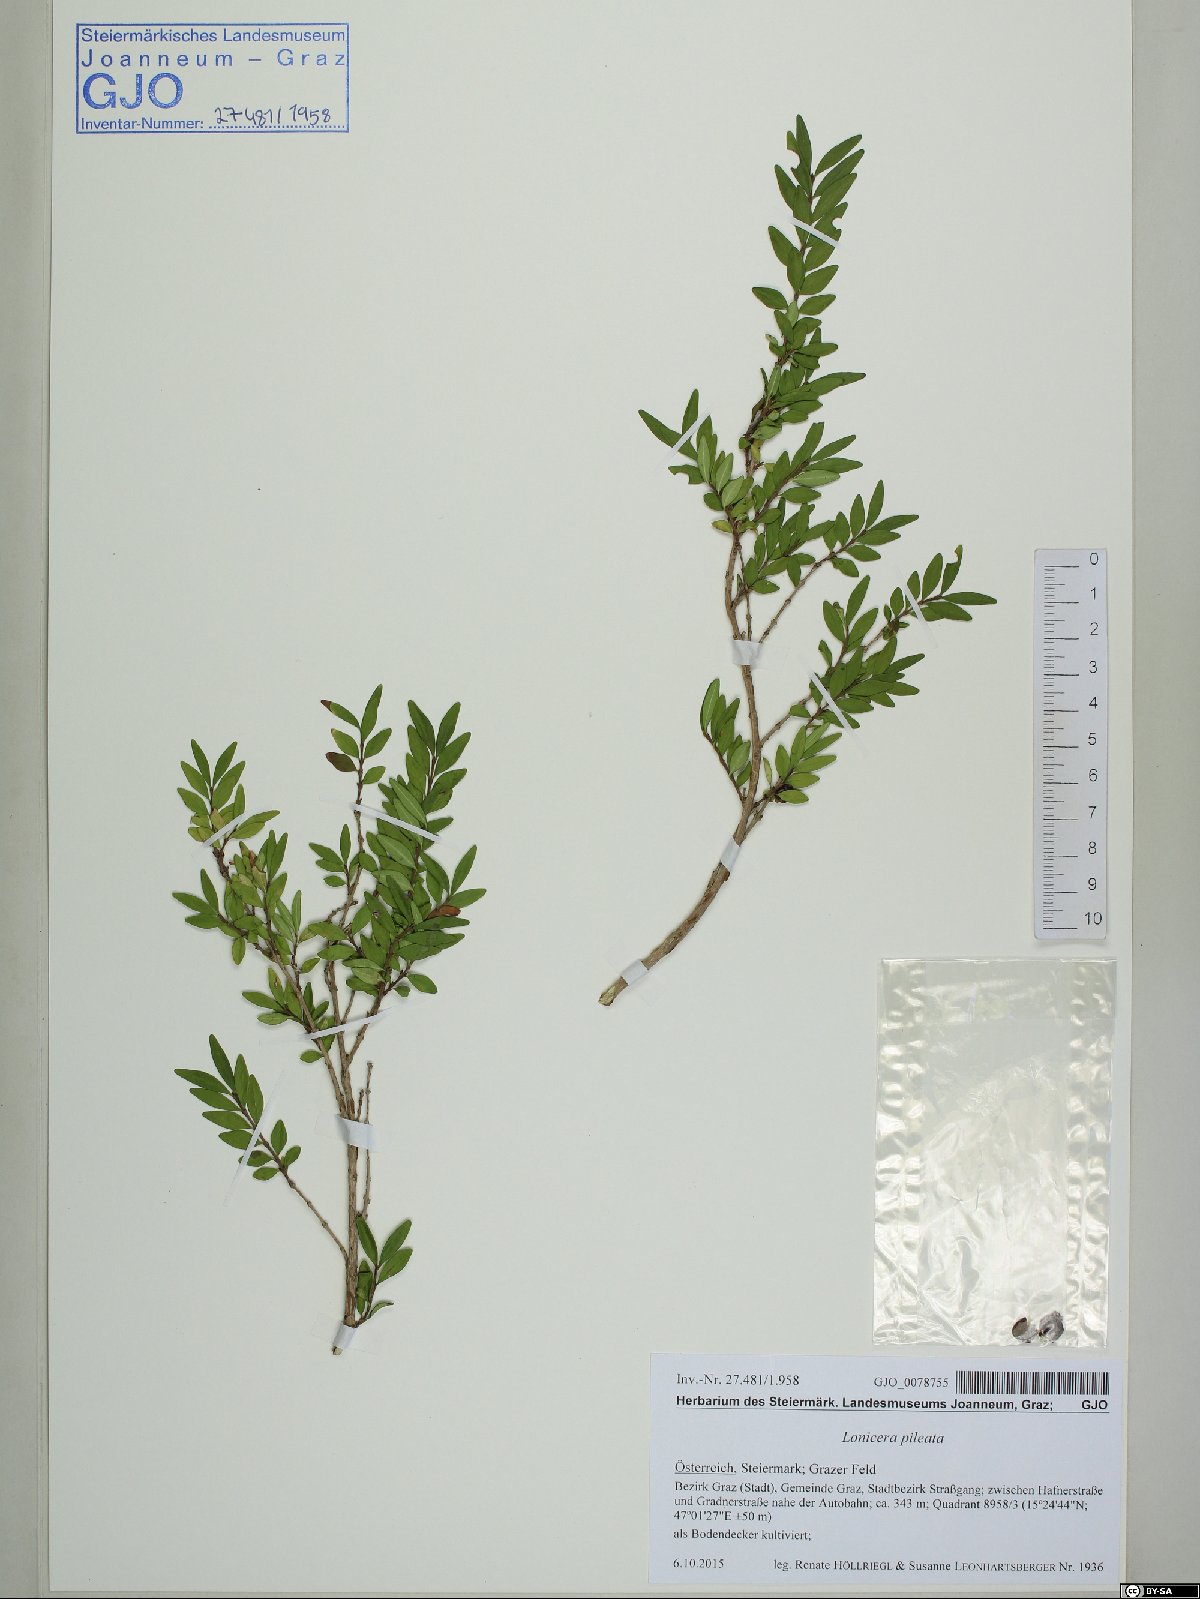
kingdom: Plantae
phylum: Tracheophyta
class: Magnoliopsida
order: Dipsacales
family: Caprifoliaceae
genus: Lonicera
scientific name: Lonicera pileata
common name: Box-leaved honeysuckle
